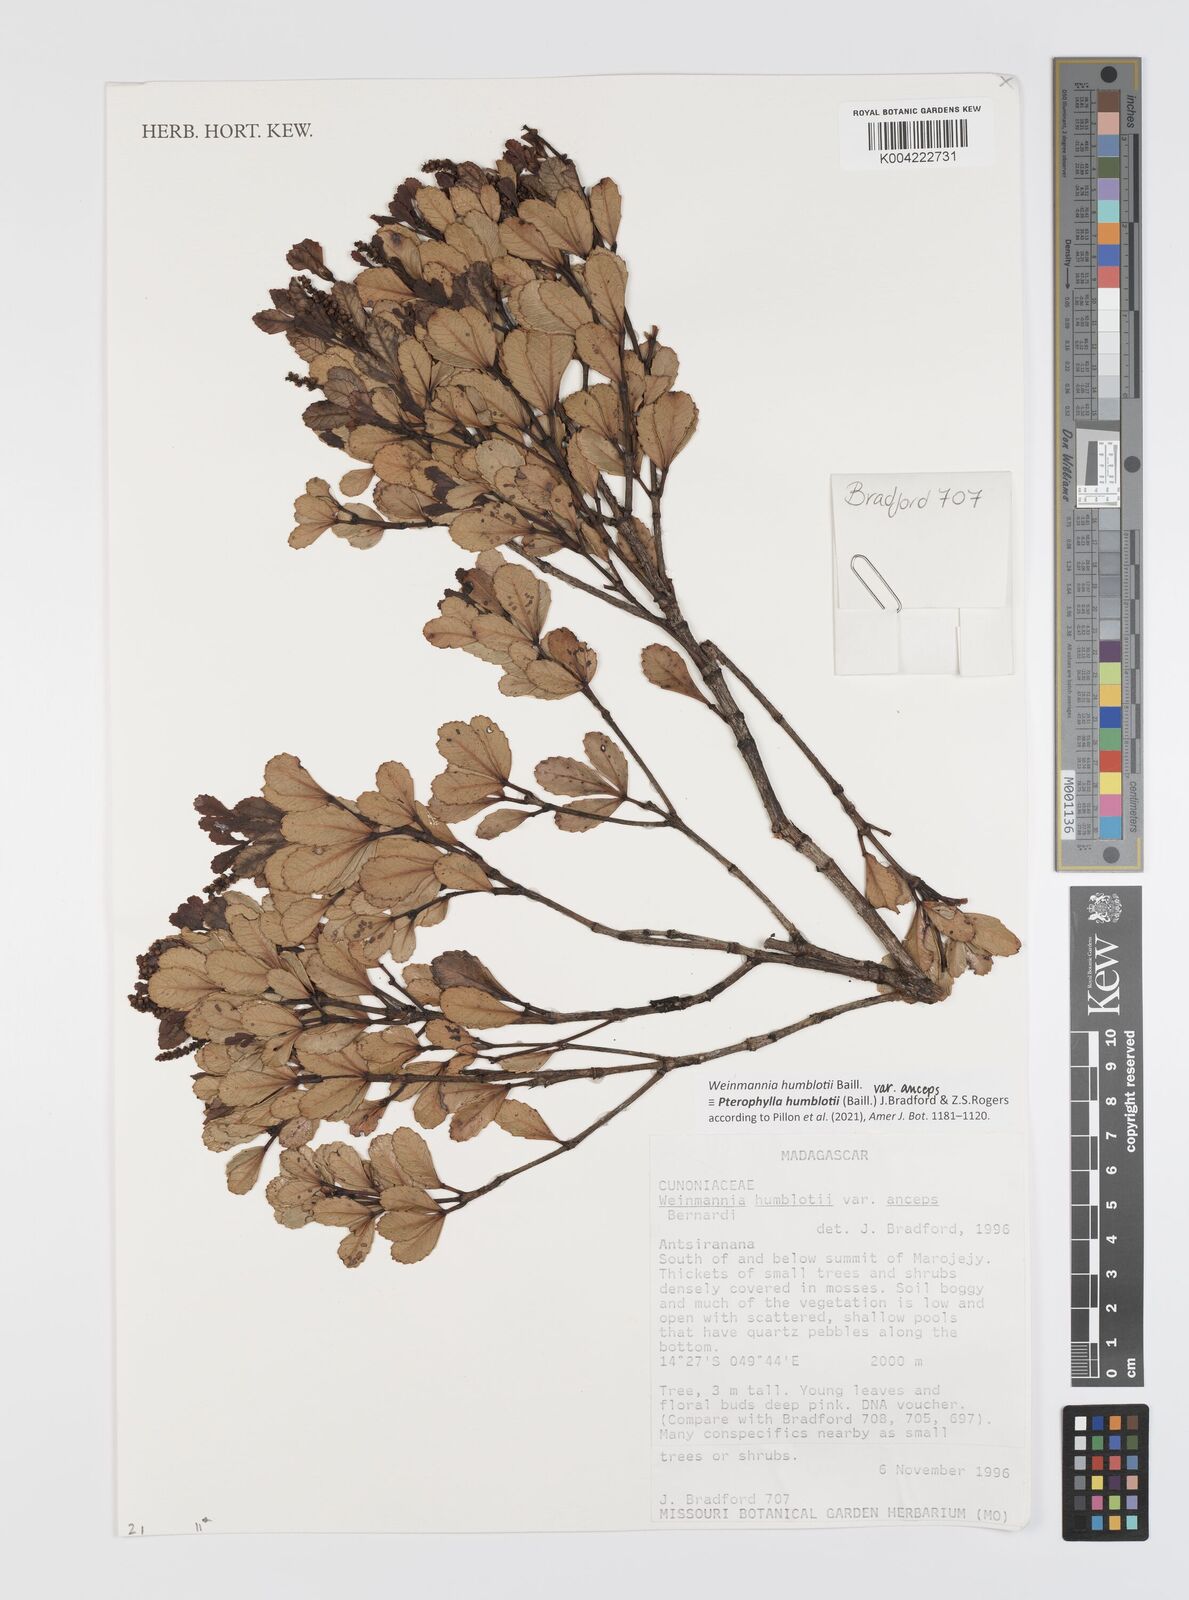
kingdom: Plantae
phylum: Tracheophyta
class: Magnoliopsida
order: Oxalidales
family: Cunoniaceae
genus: Pterophylla
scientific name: Pterophylla
